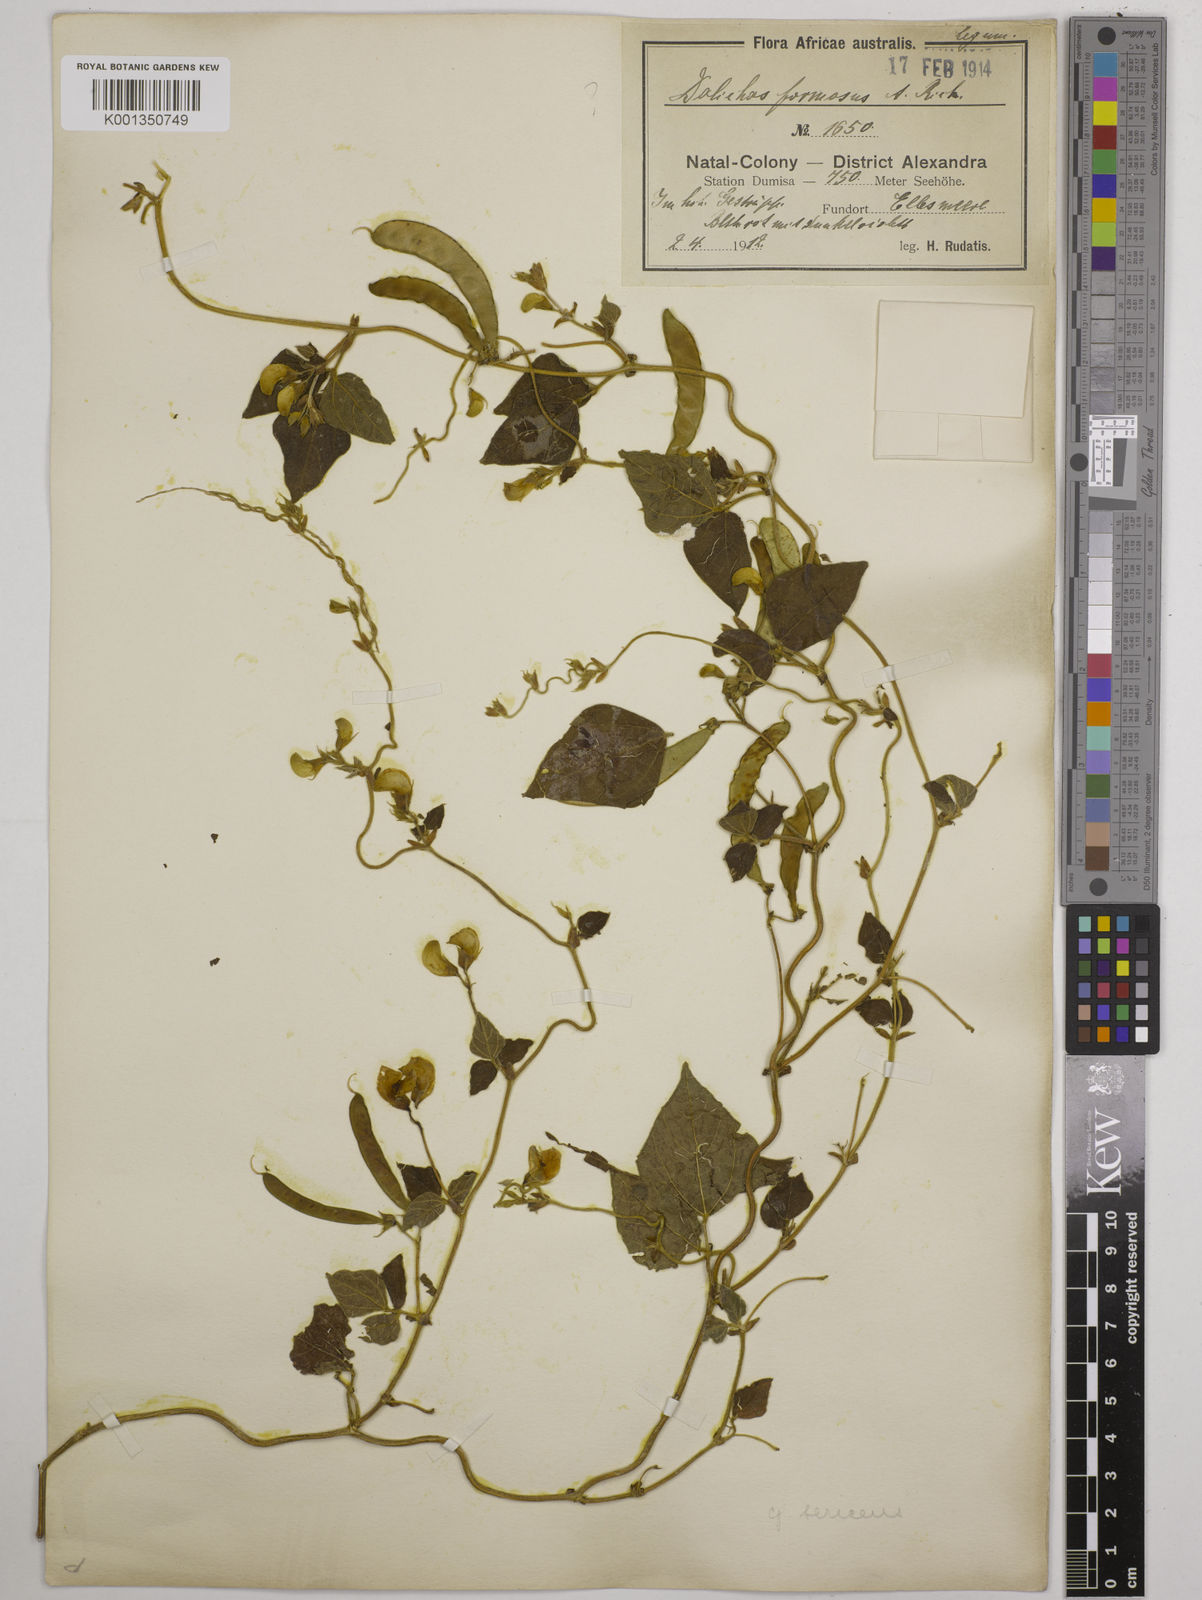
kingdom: Plantae
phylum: Tracheophyta
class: Magnoliopsida
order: Fabales
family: Fabaceae
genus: Dolichos
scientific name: Dolichos sericeus
